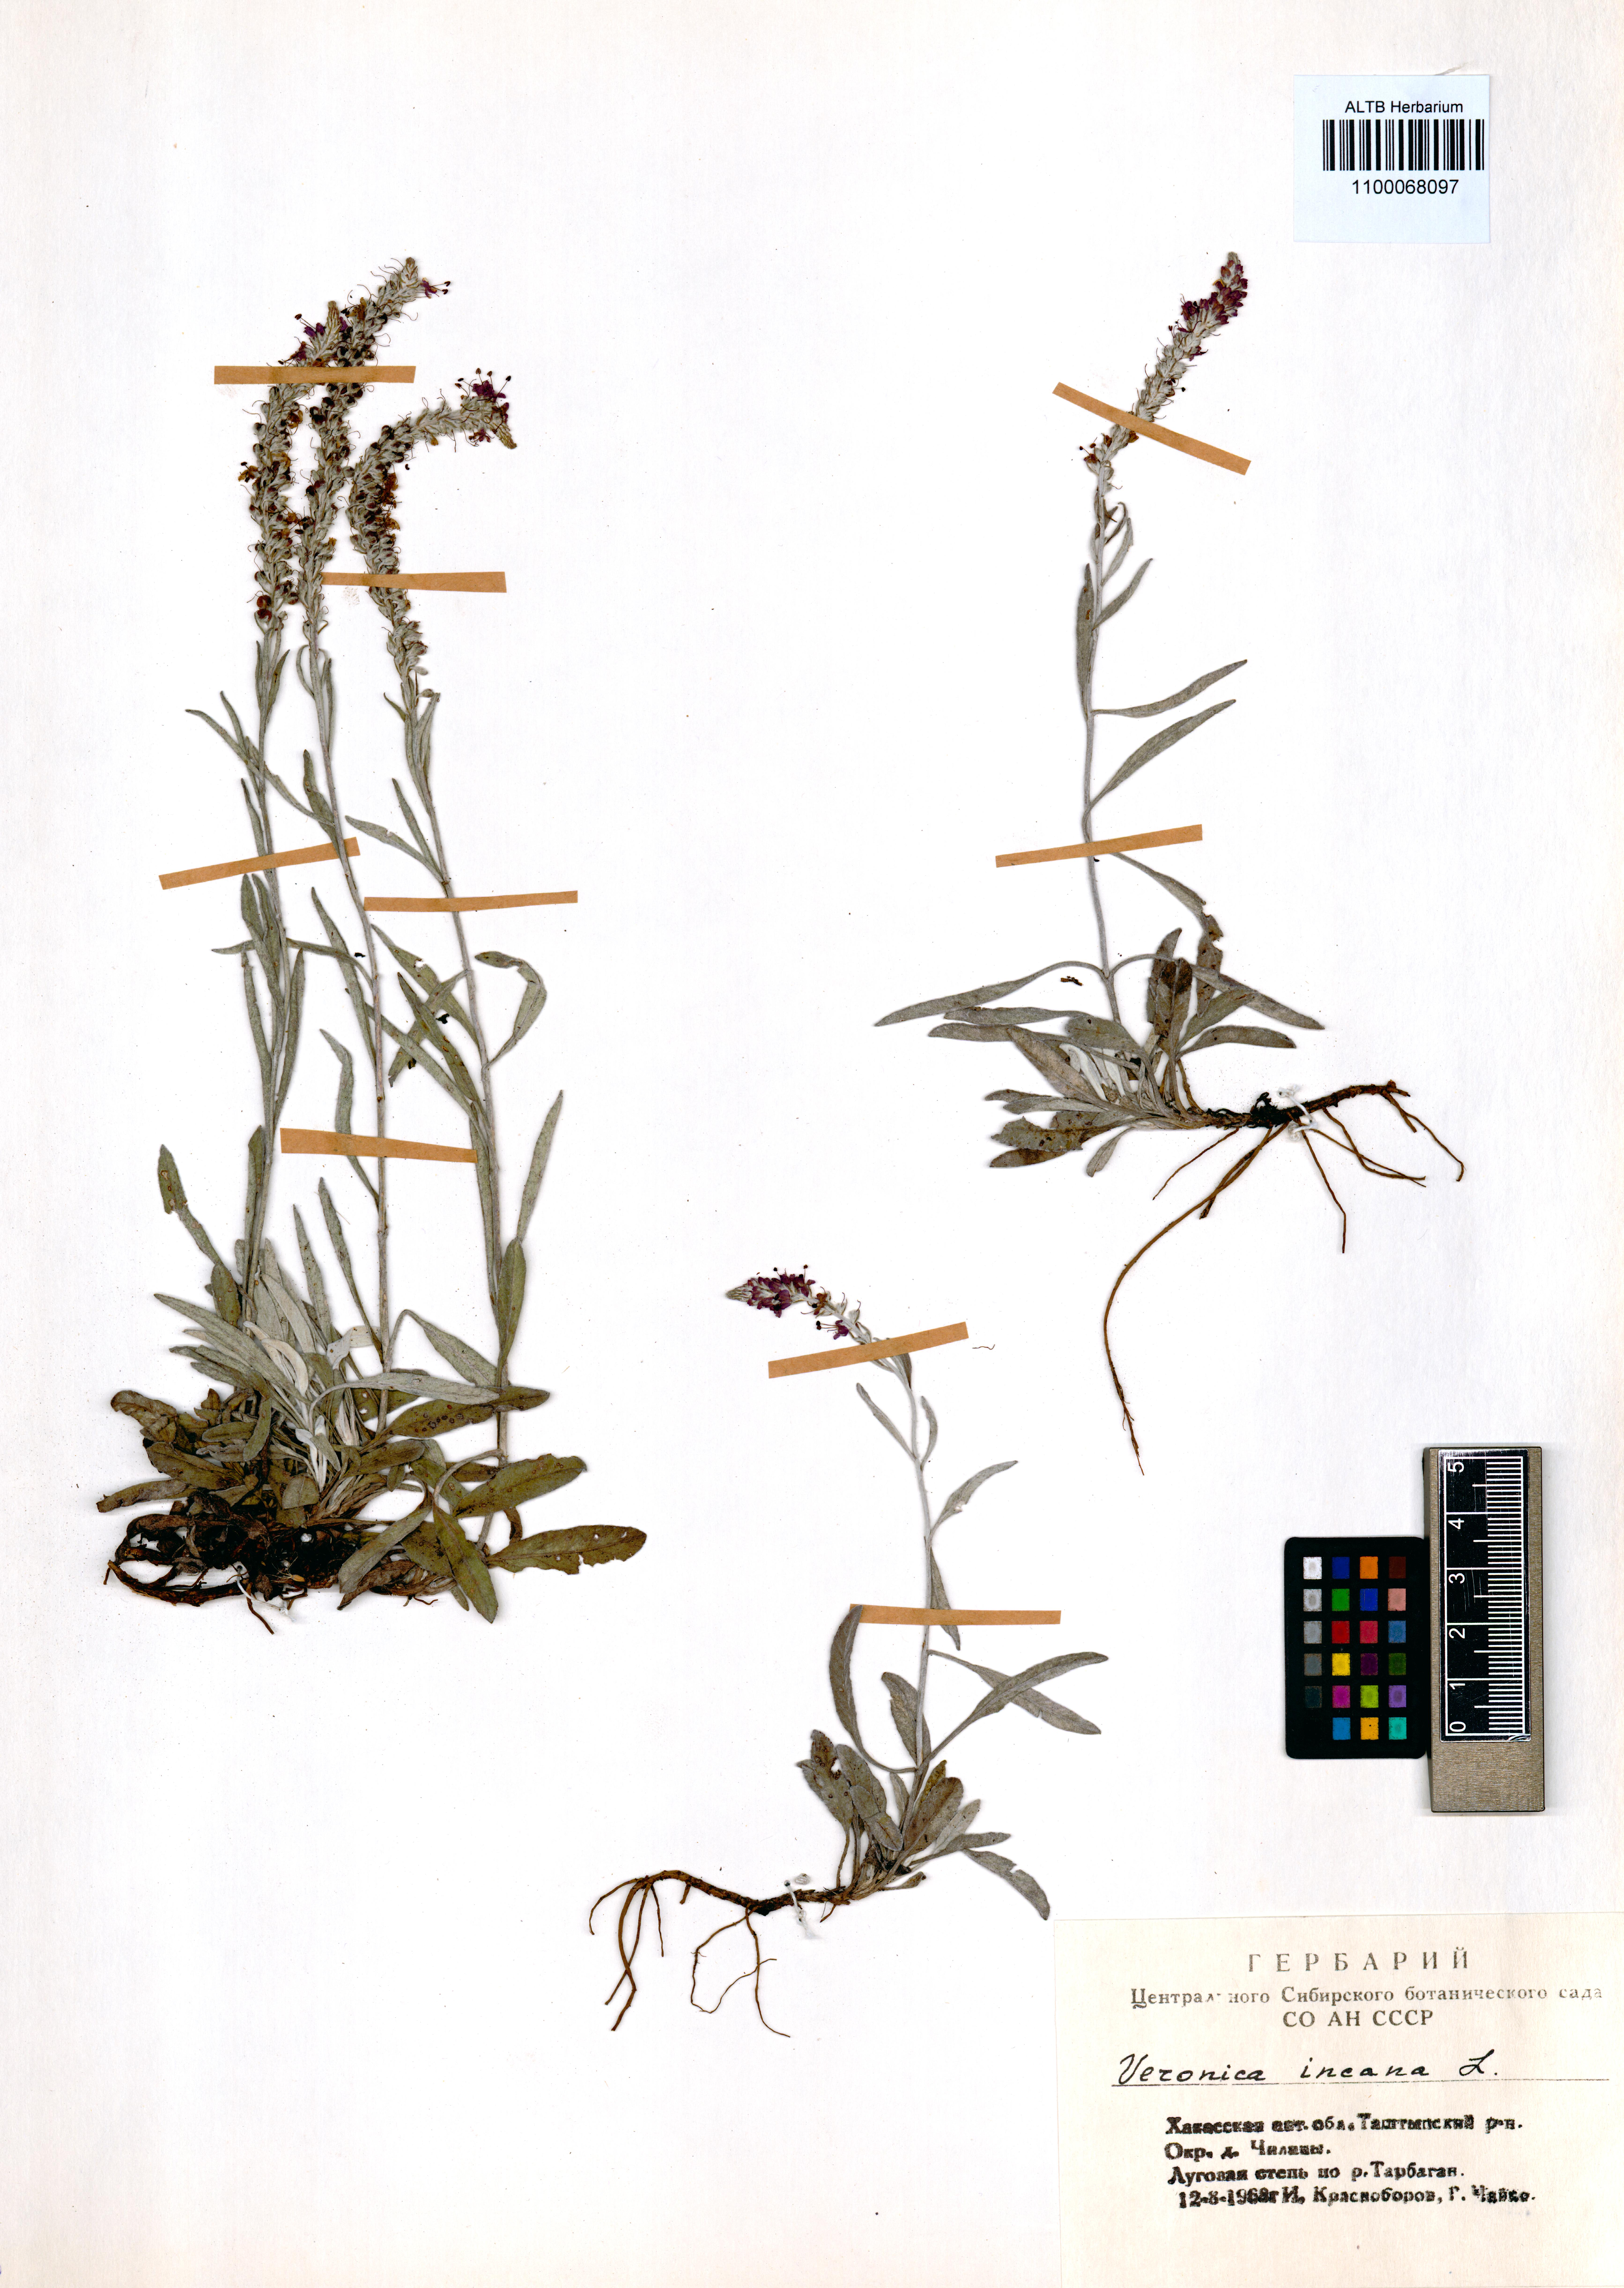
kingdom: Plantae
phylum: Tracheophyta
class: Magnoliopsida
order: Lamiales
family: Plantaginaceae
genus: Veronica
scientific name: Veronica incana
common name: Silver speedwell
